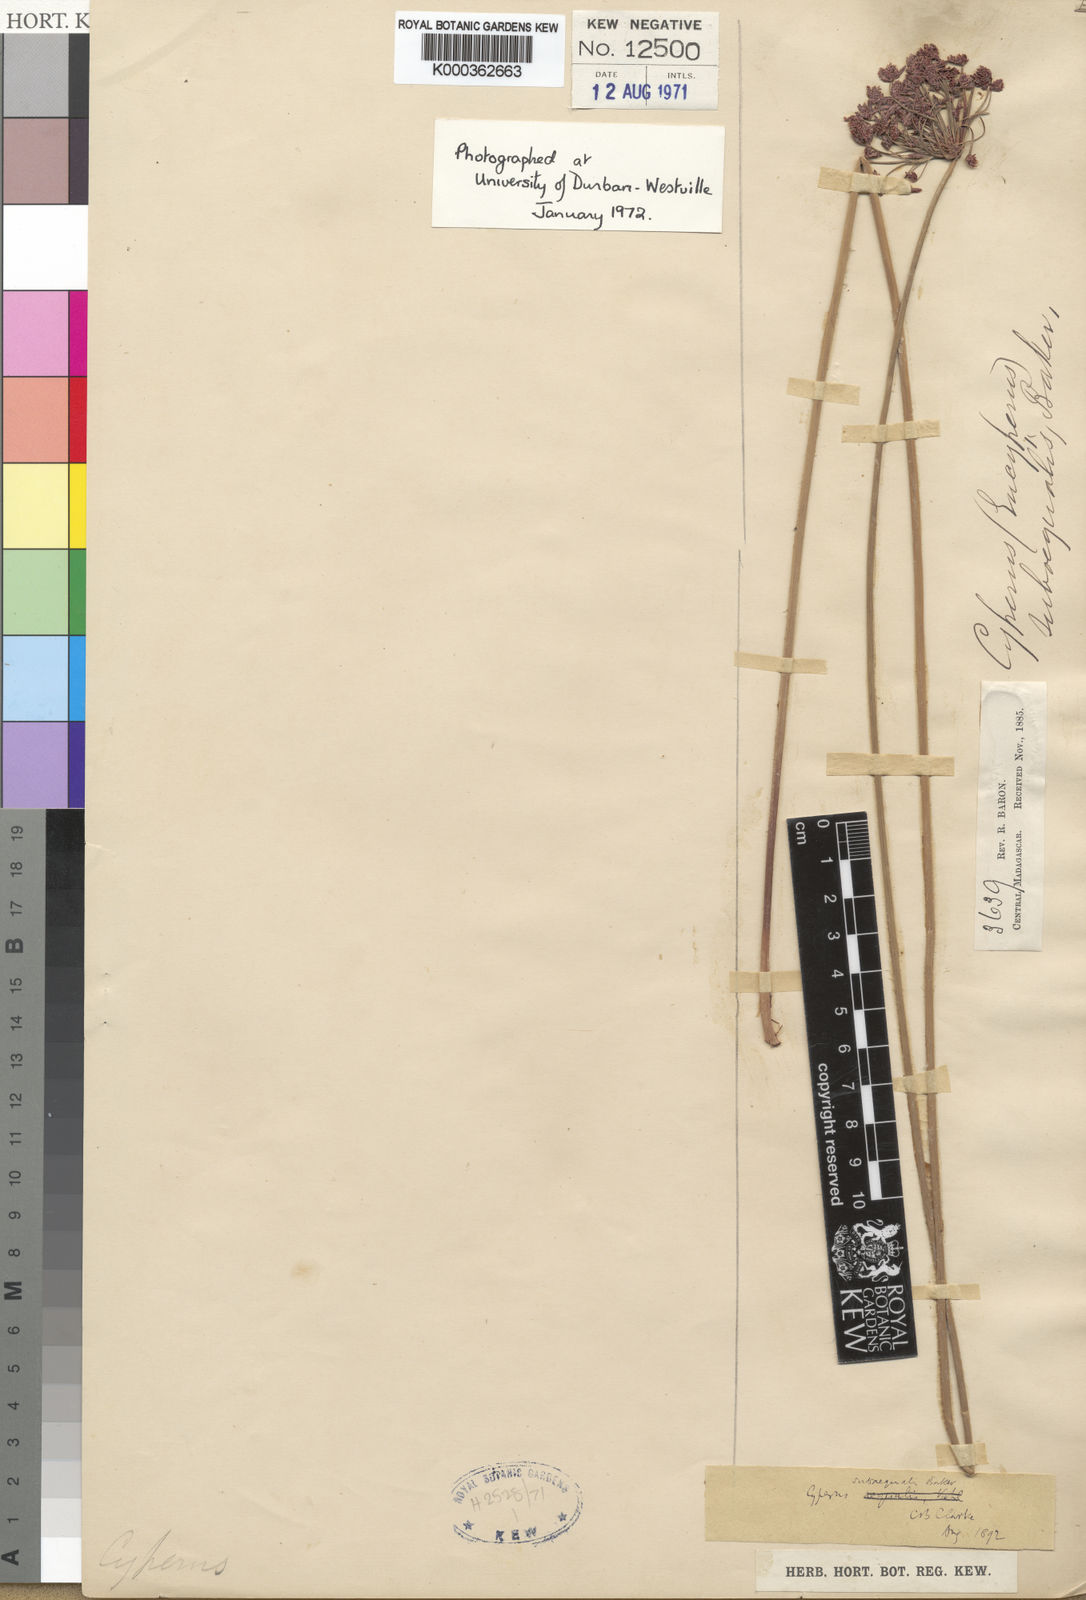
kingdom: Plantae
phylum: Tracheophyta
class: Liliopsida
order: Poales
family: Cyperaceae
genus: Cyperus
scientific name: Cyperus subaequalis
